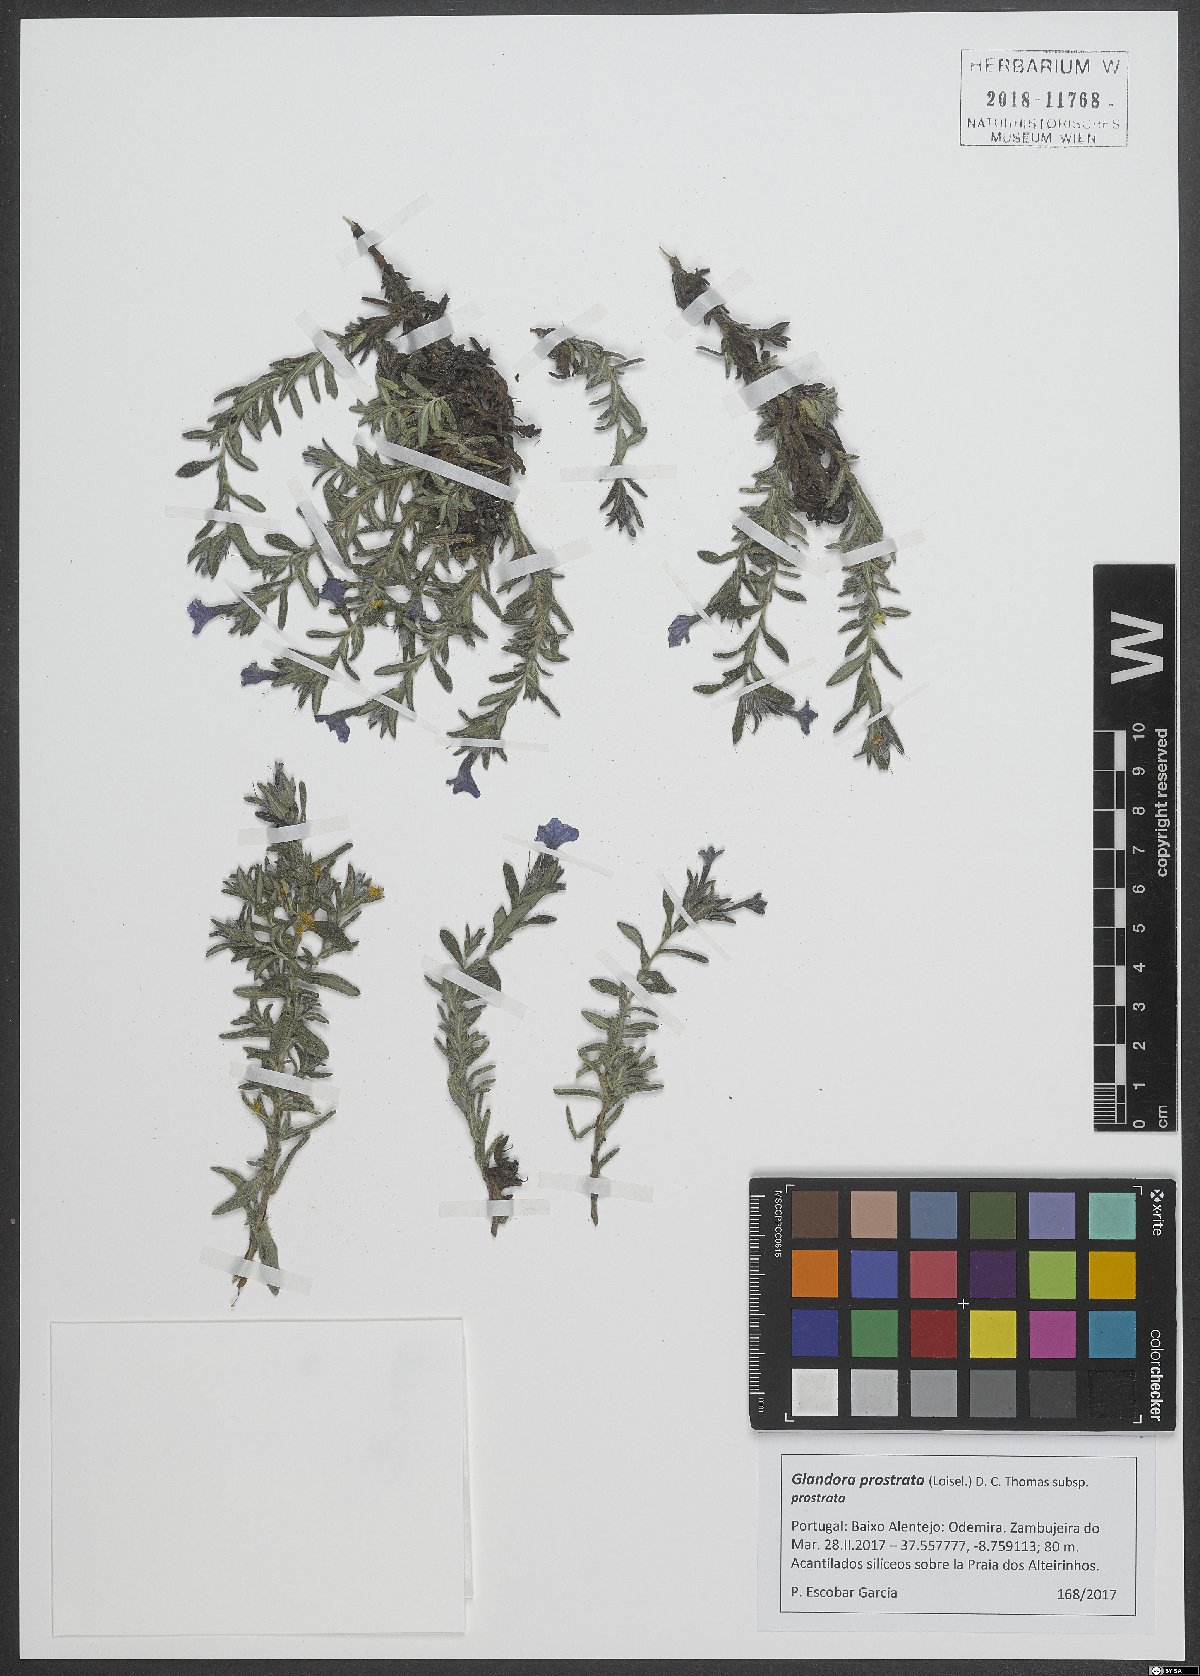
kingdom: Plantae
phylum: Tracheophyta
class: Magnoliopsida
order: Boraginales
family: Boraginaceae
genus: Glandora
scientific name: Glandora prostrata
